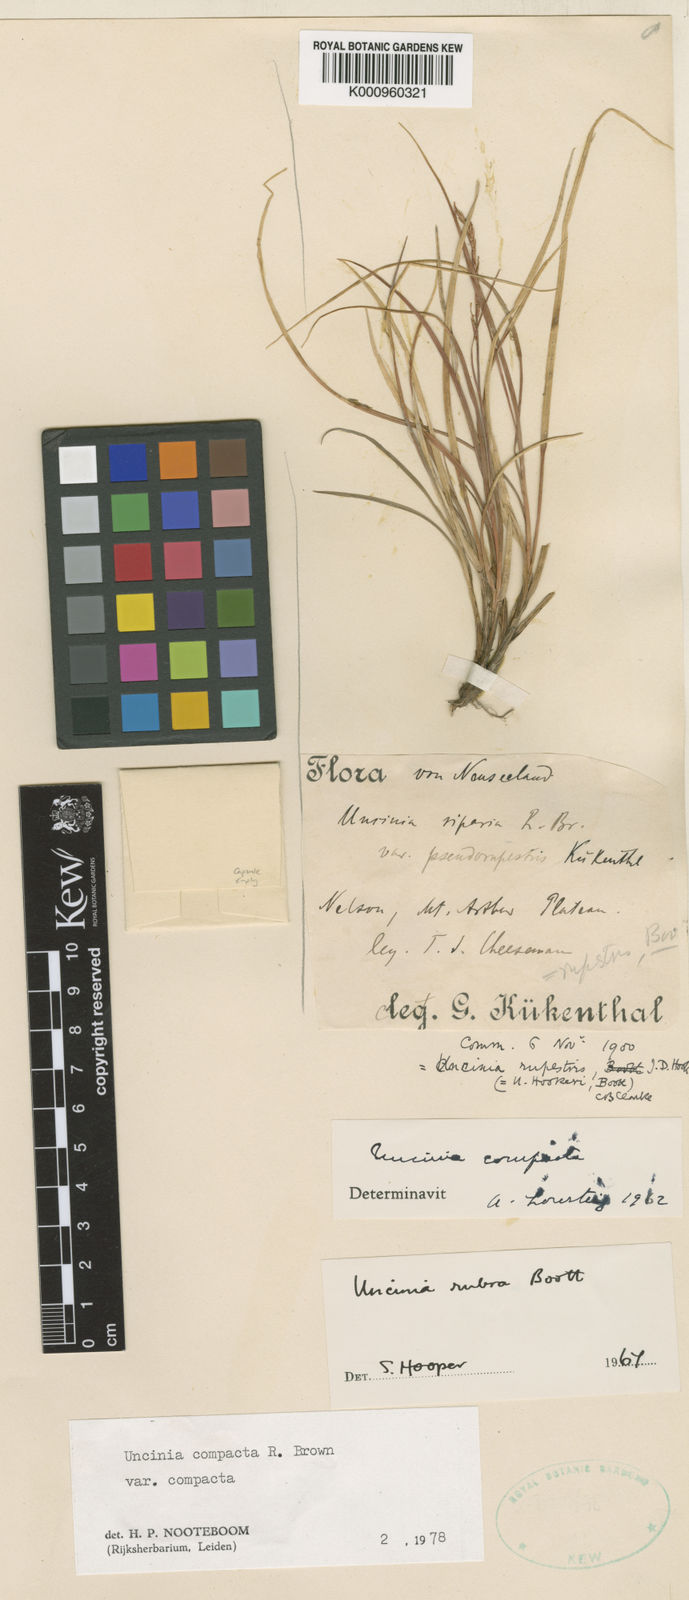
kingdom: Plantae
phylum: Tracheophyta
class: Liliopsida
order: Poales
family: Cyperaceae
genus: Carex
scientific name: Carex punicea
